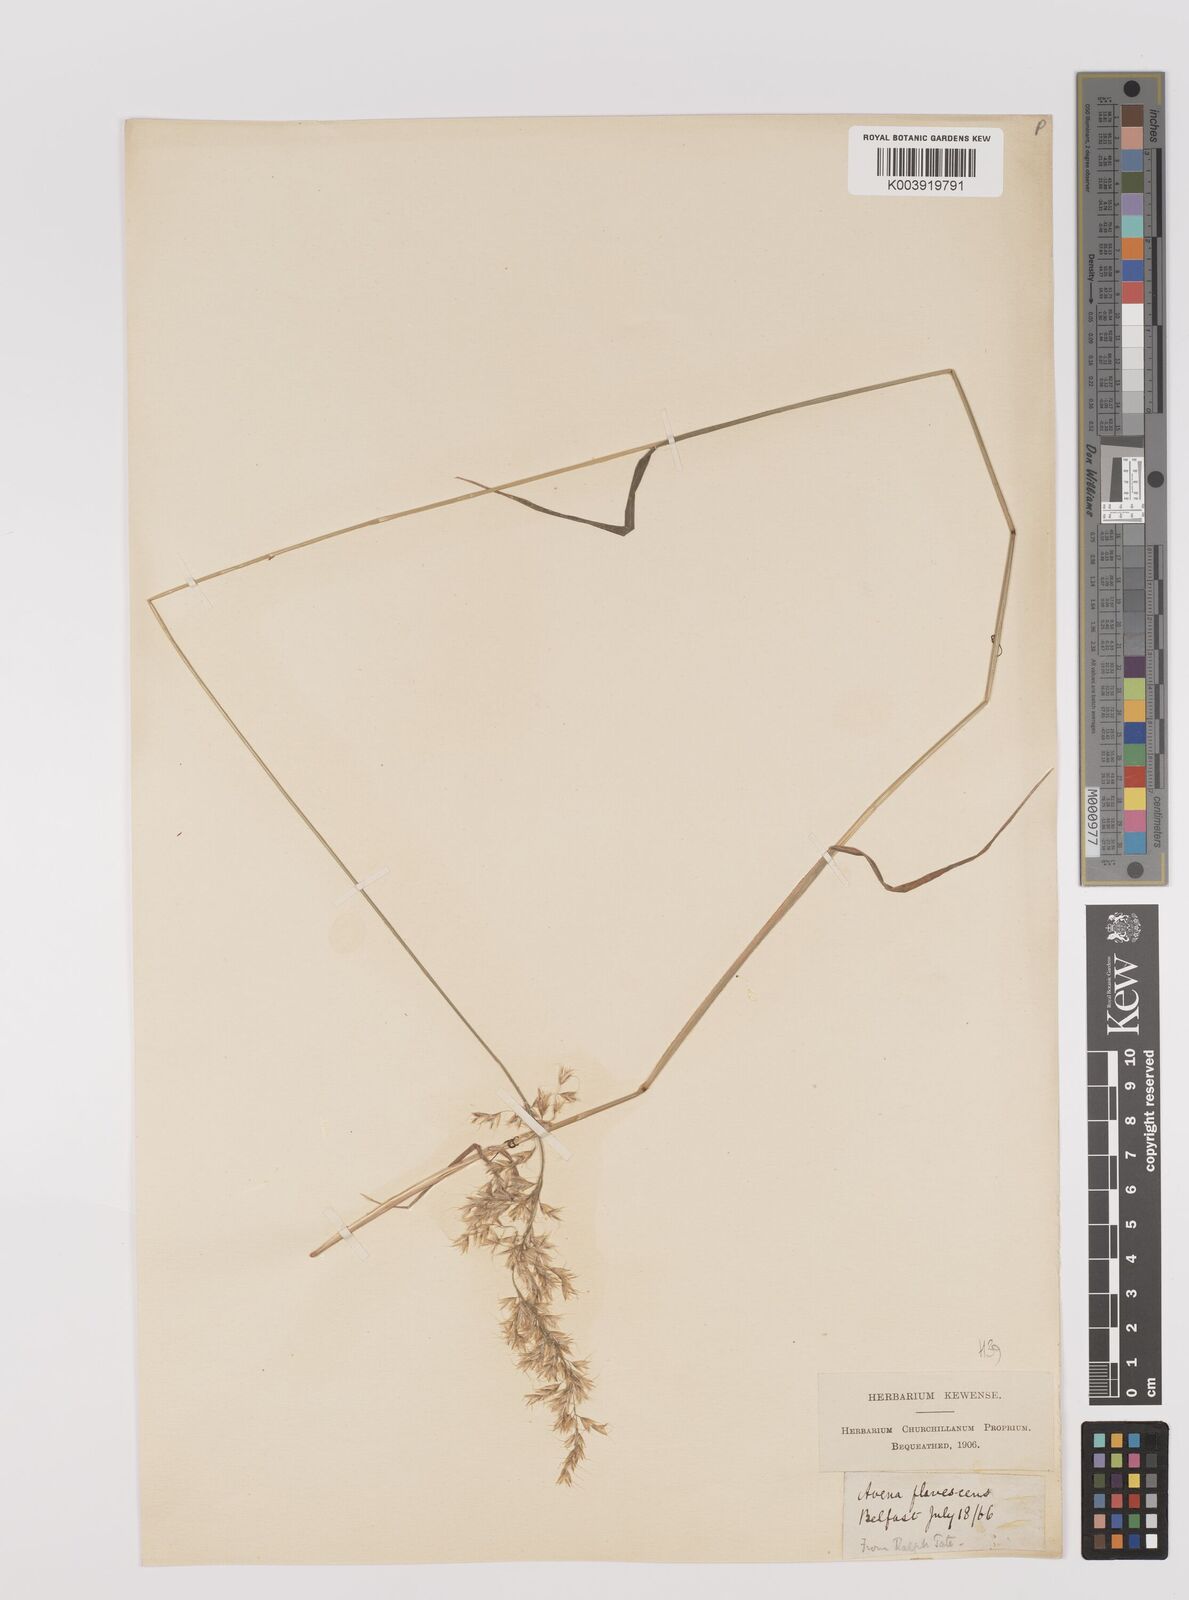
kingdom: Plantae
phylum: Tracheophyta
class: Liliopsida
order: Poales
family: Poaceae
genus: Trisetum
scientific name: Trisetum flavescens
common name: Yellow oat-grass
